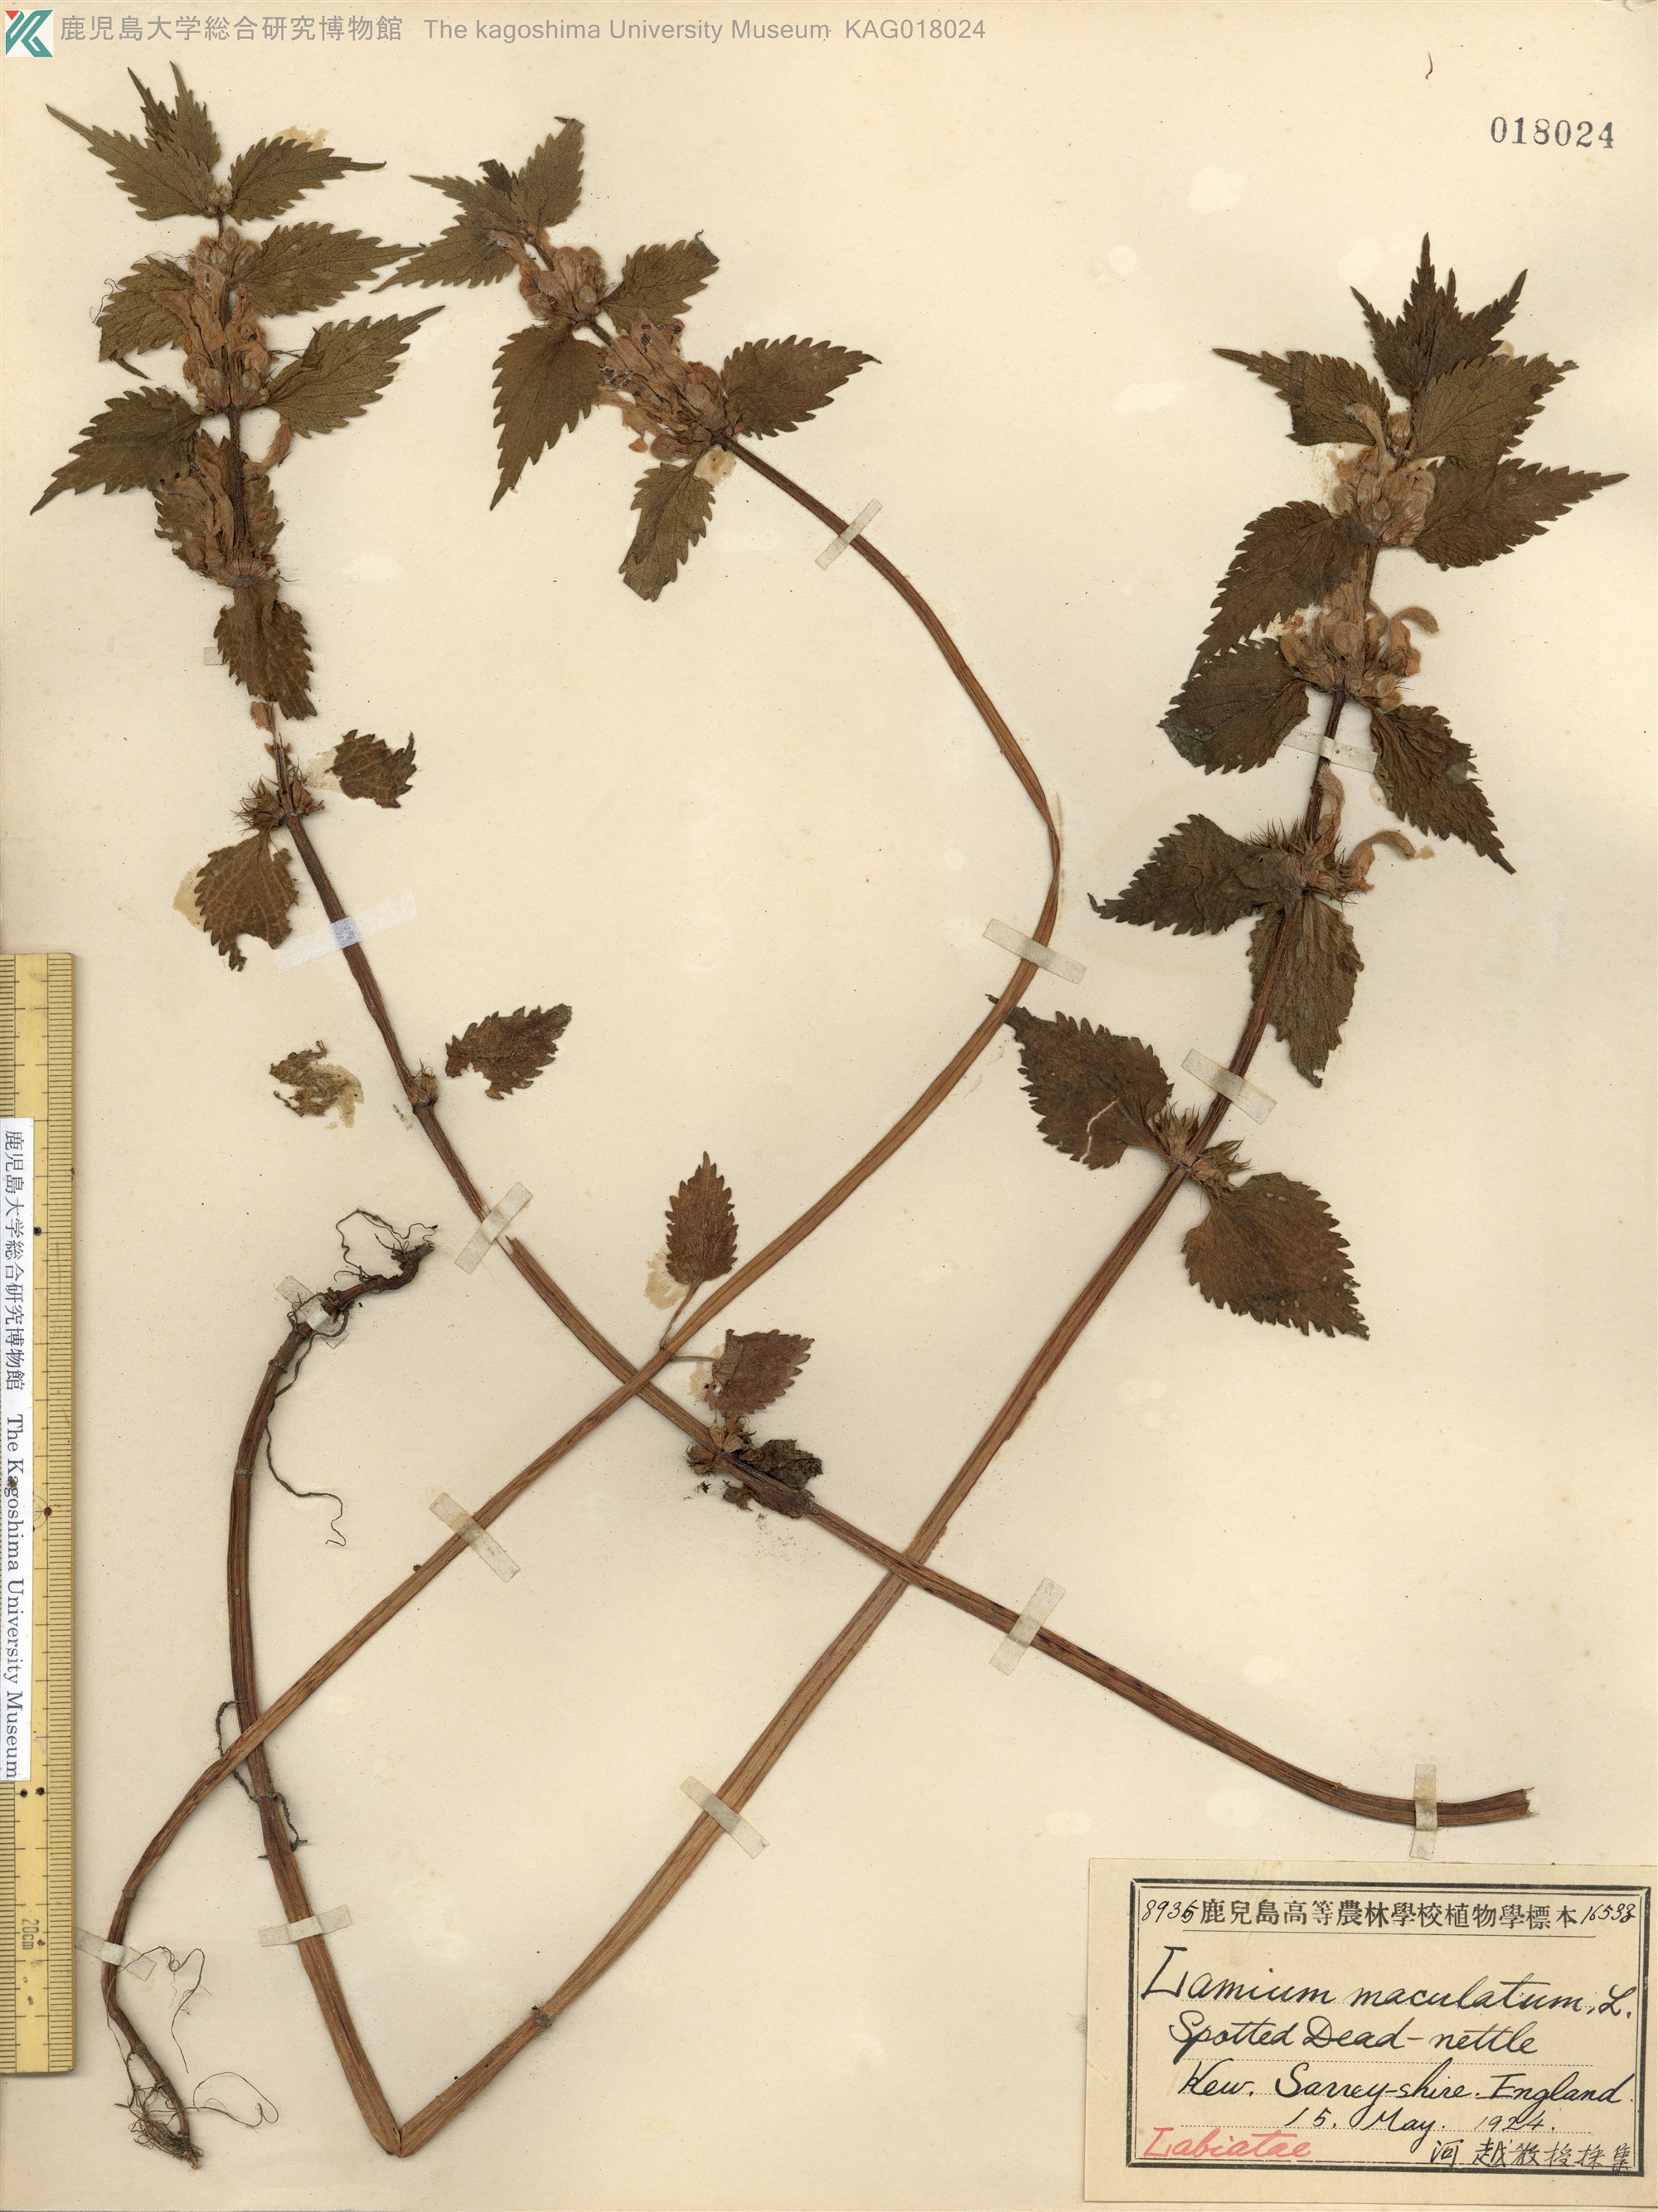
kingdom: Plantae
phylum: Tracheophyta
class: Magnoliopsida
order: Lamiales
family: Lamiaceae
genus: Lamium
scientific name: Lamium maculatum
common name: Spotted dead-nettle
